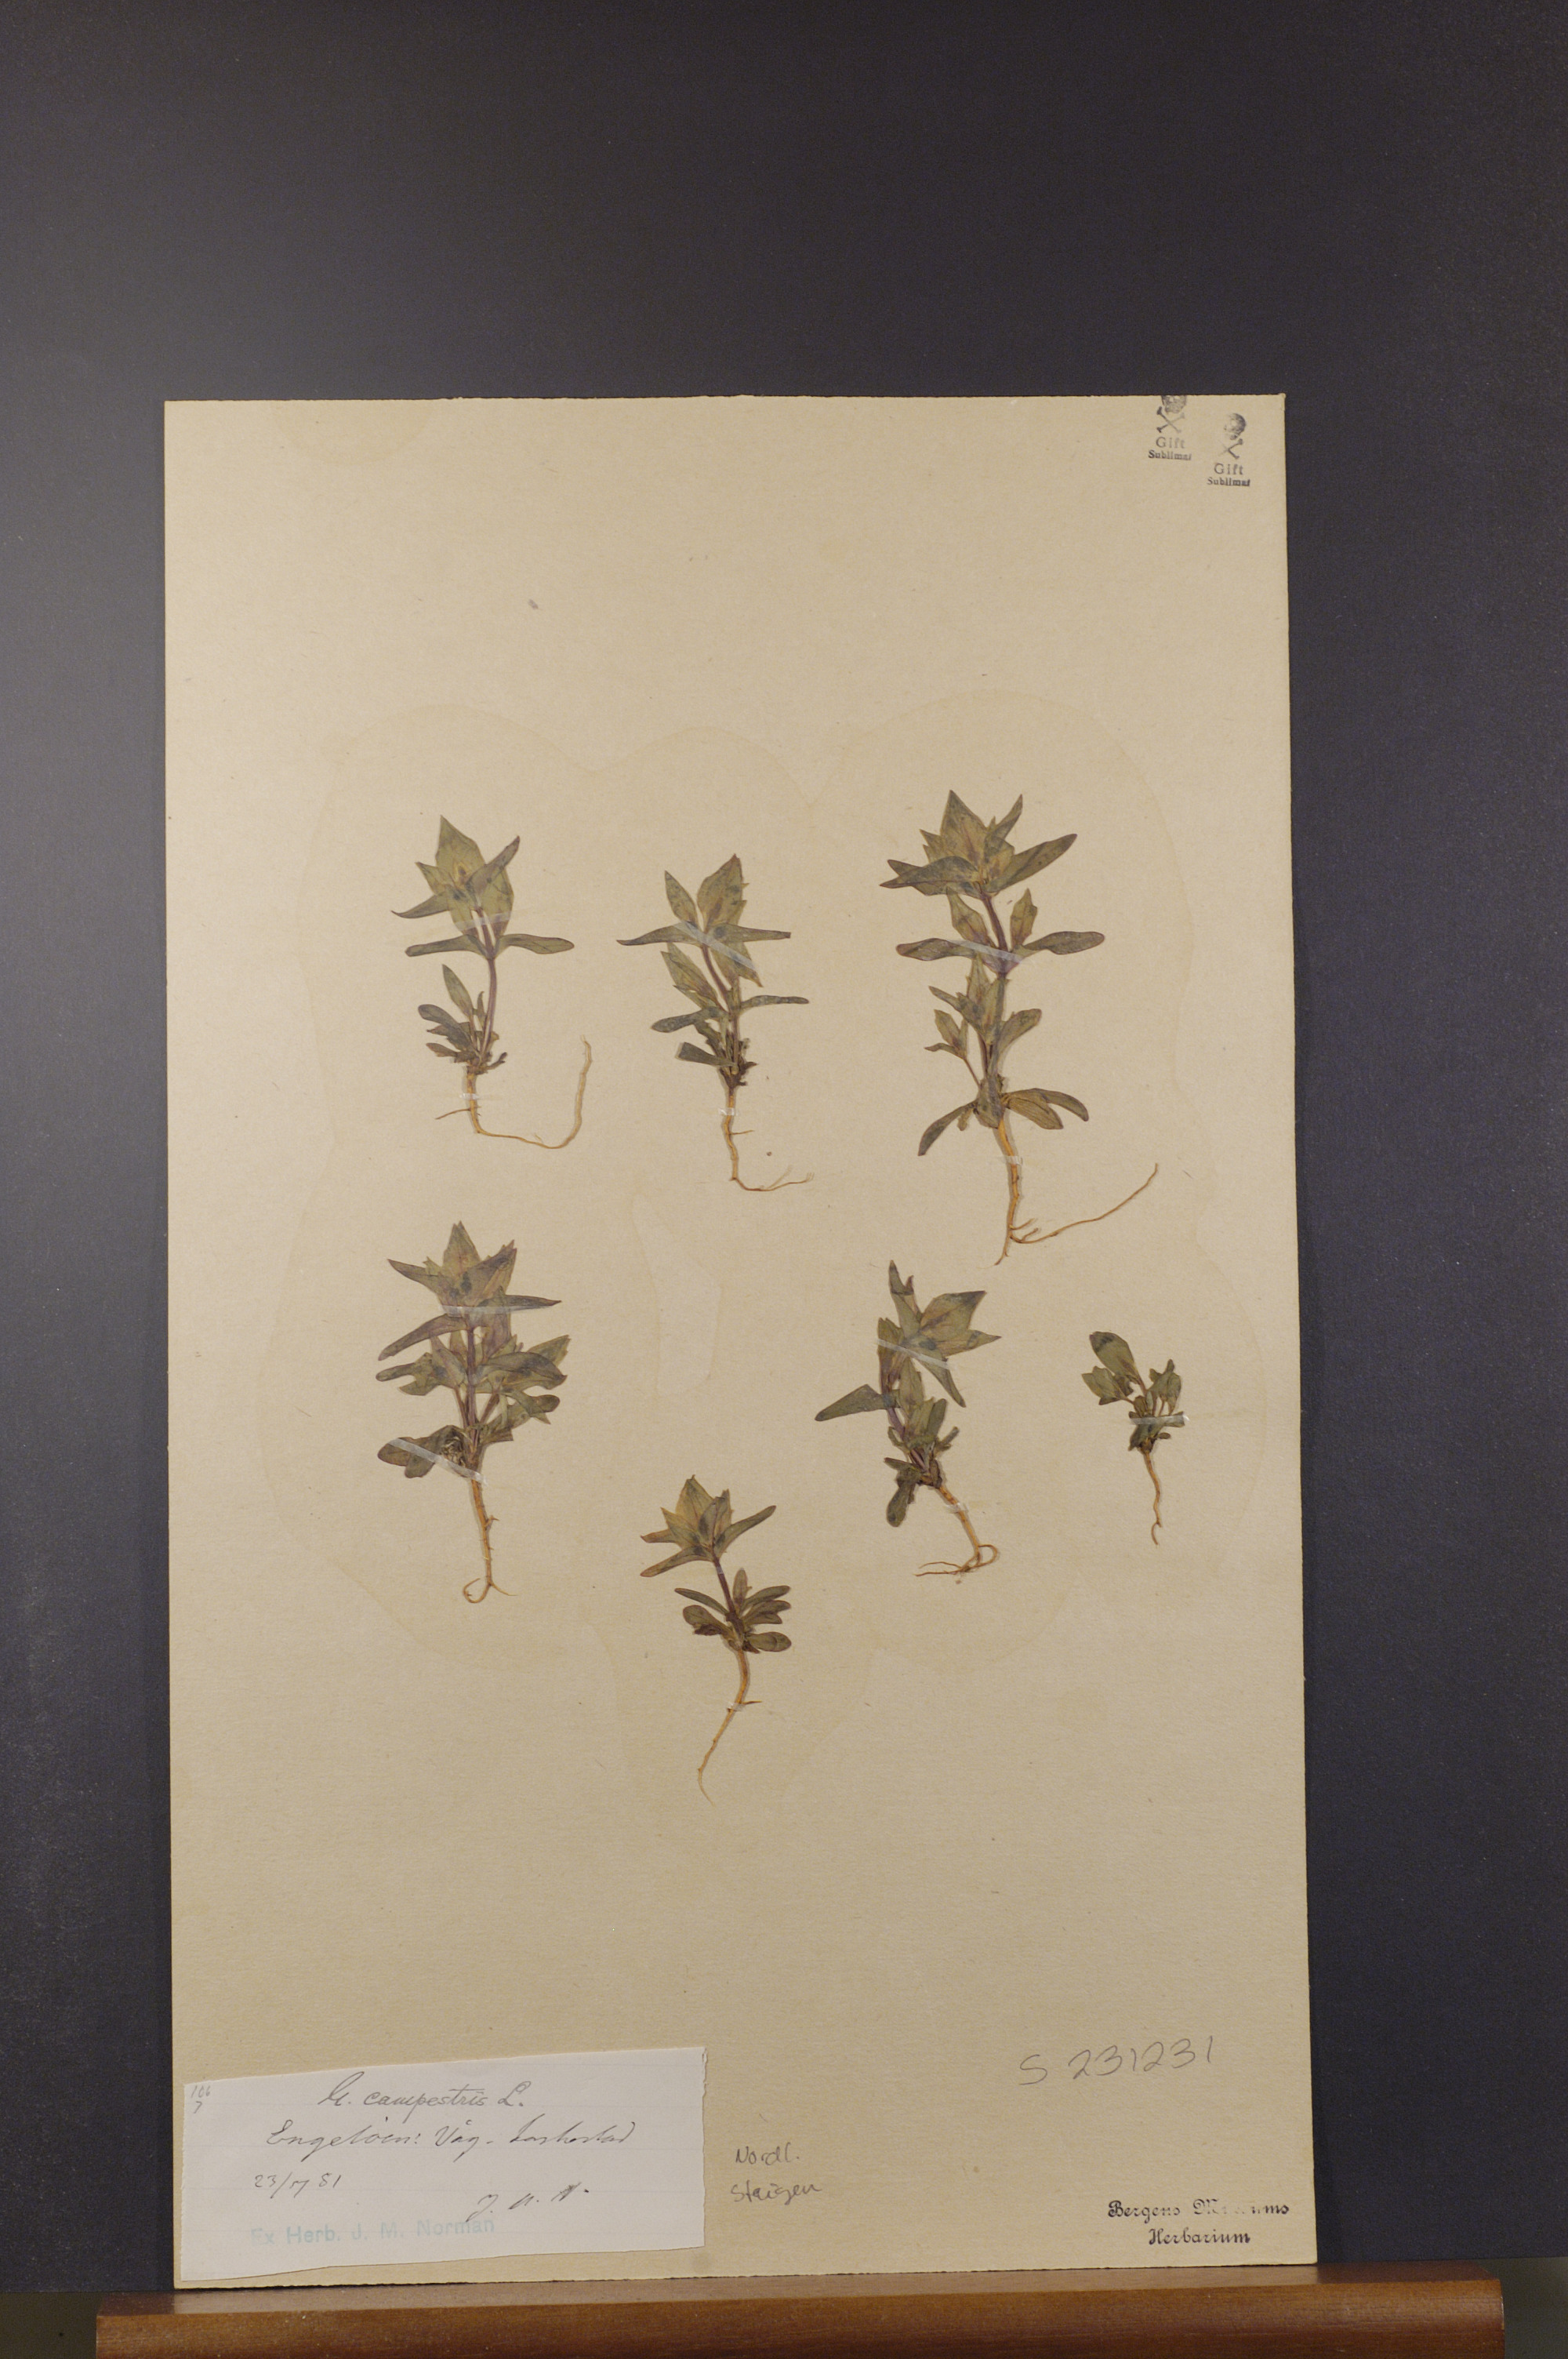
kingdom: Plantae
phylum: Tracheophyta
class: Magnoliopsida
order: Gentianales
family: Gentianaceae
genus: Gentianella
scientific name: Gentianella campestris
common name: Field gentian
